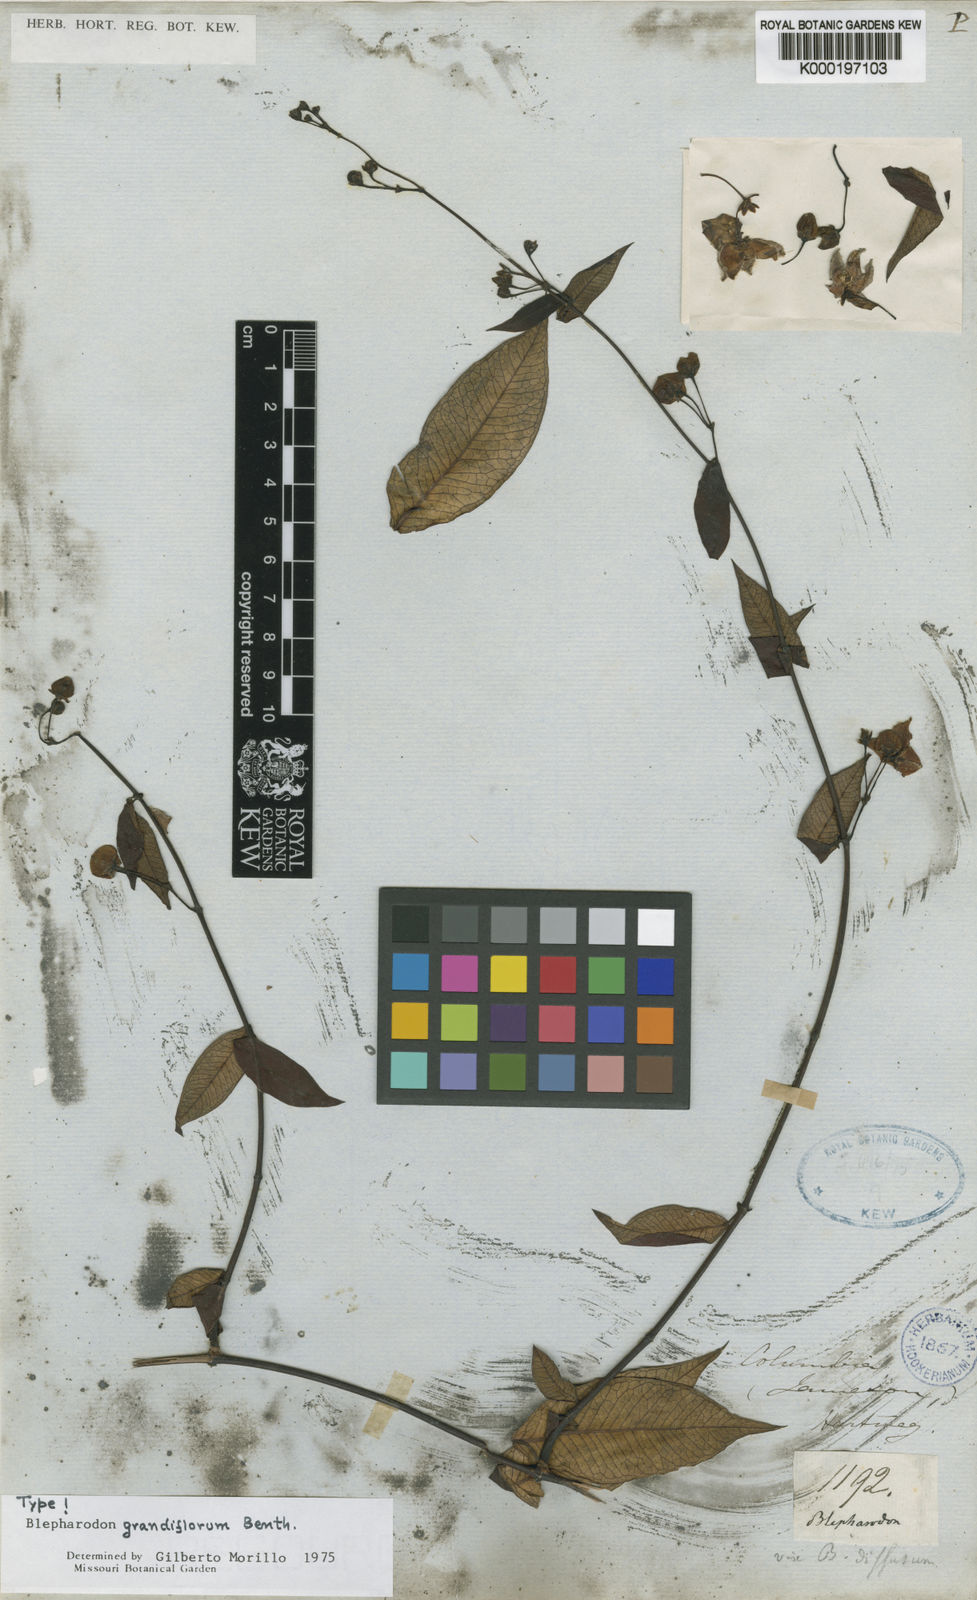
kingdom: Plantae
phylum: Tracheophyta
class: Magnoliopsida
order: Gentianales
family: Apocynaceae
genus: Blepharodon
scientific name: Blepharodon grandiflorum
